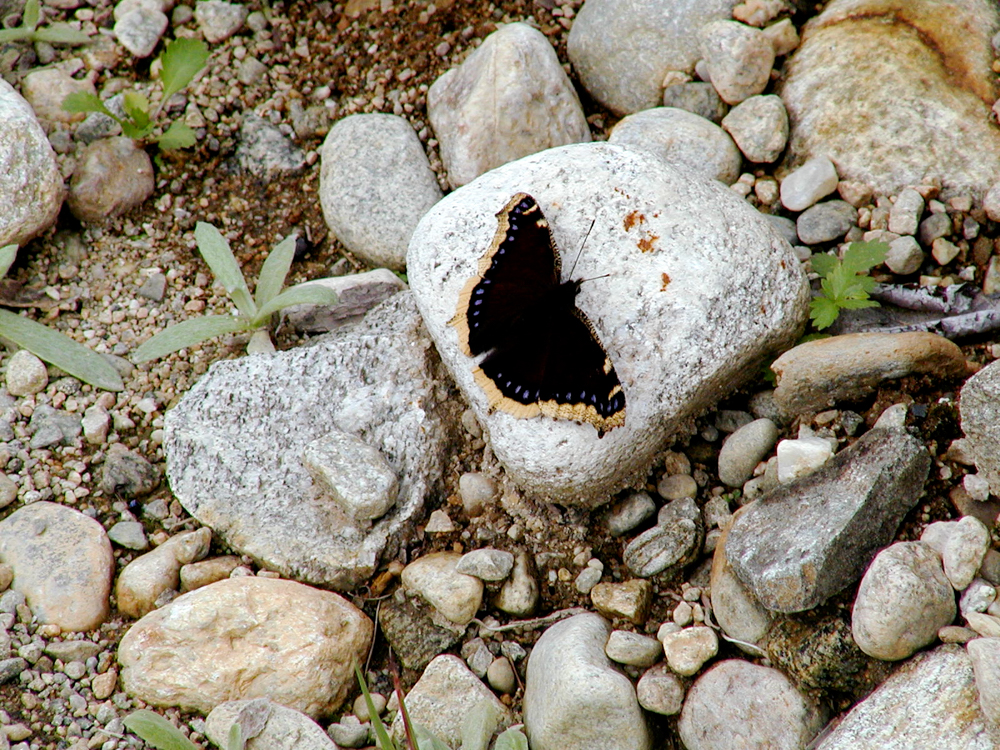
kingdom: Animalia
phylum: Arthropoda
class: Insecta
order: Lepidoptera
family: Nymphalidae
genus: Nymphalis
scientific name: Nymphalis antiopa
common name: Camberwell beauty
